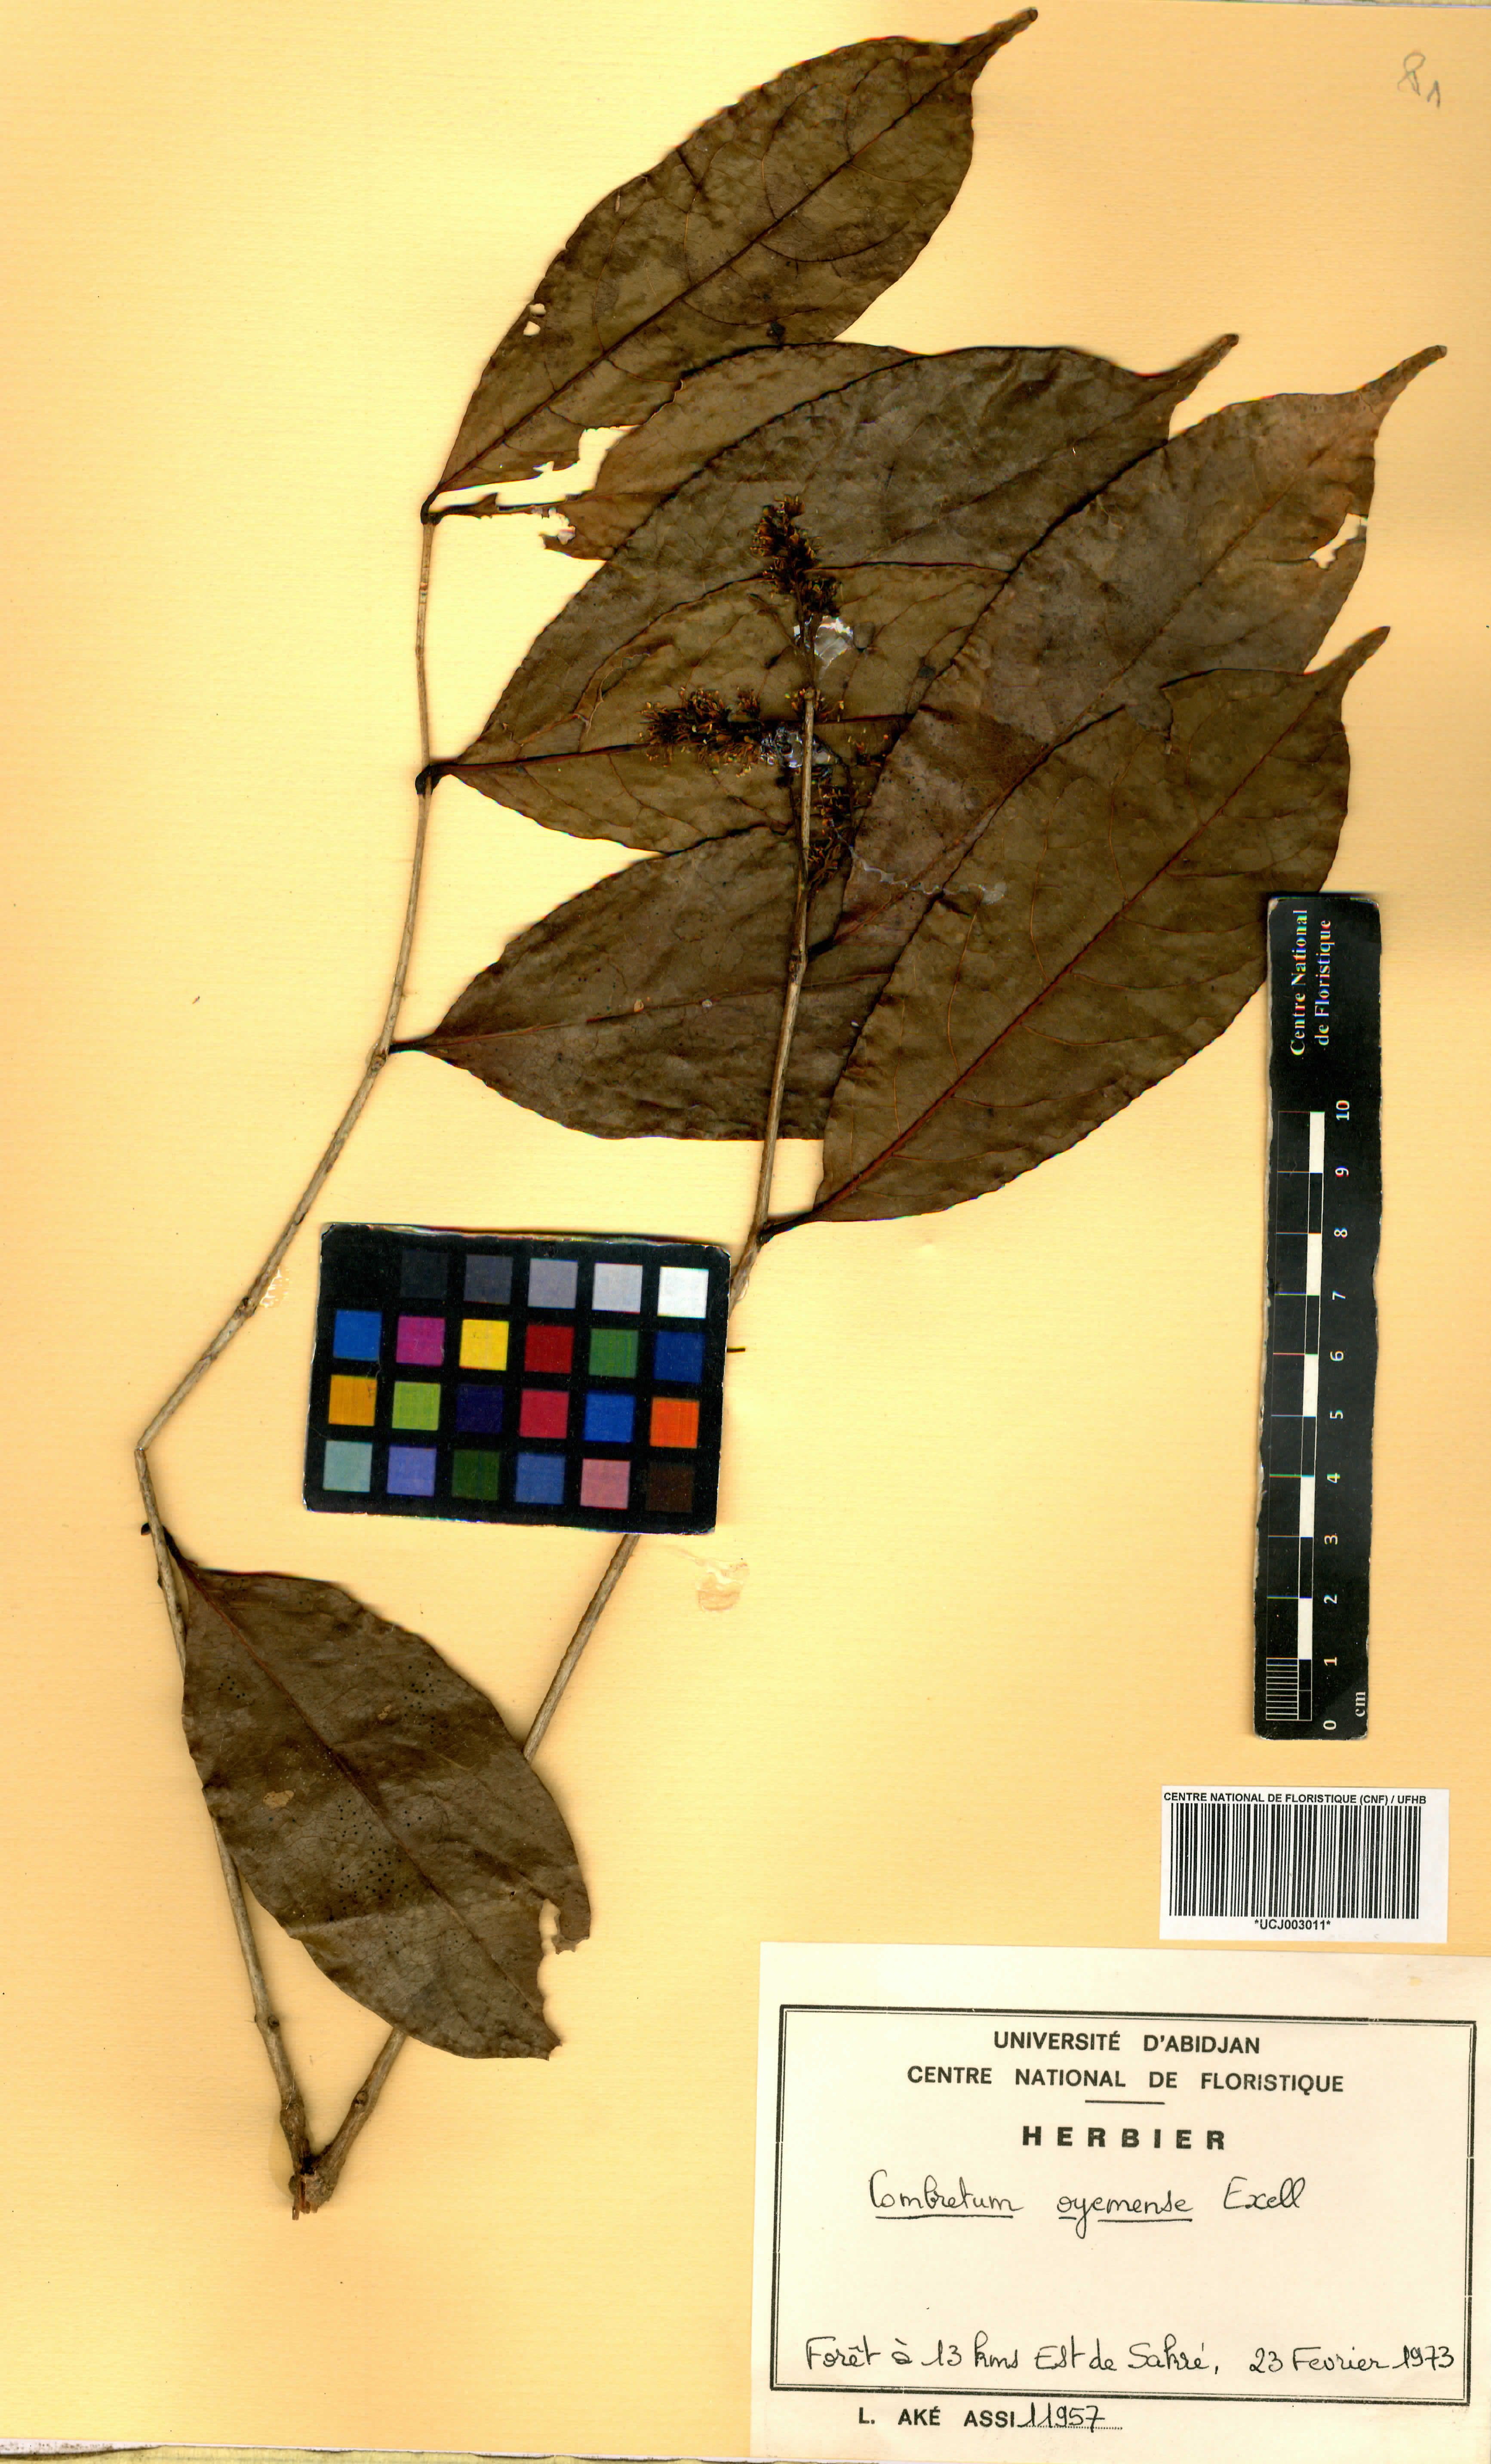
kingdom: Plantae
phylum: Tracheophyta
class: Magnoliopsida
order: Myrtales
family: Combretaceae
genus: Combretum
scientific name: Combretum oyemense
